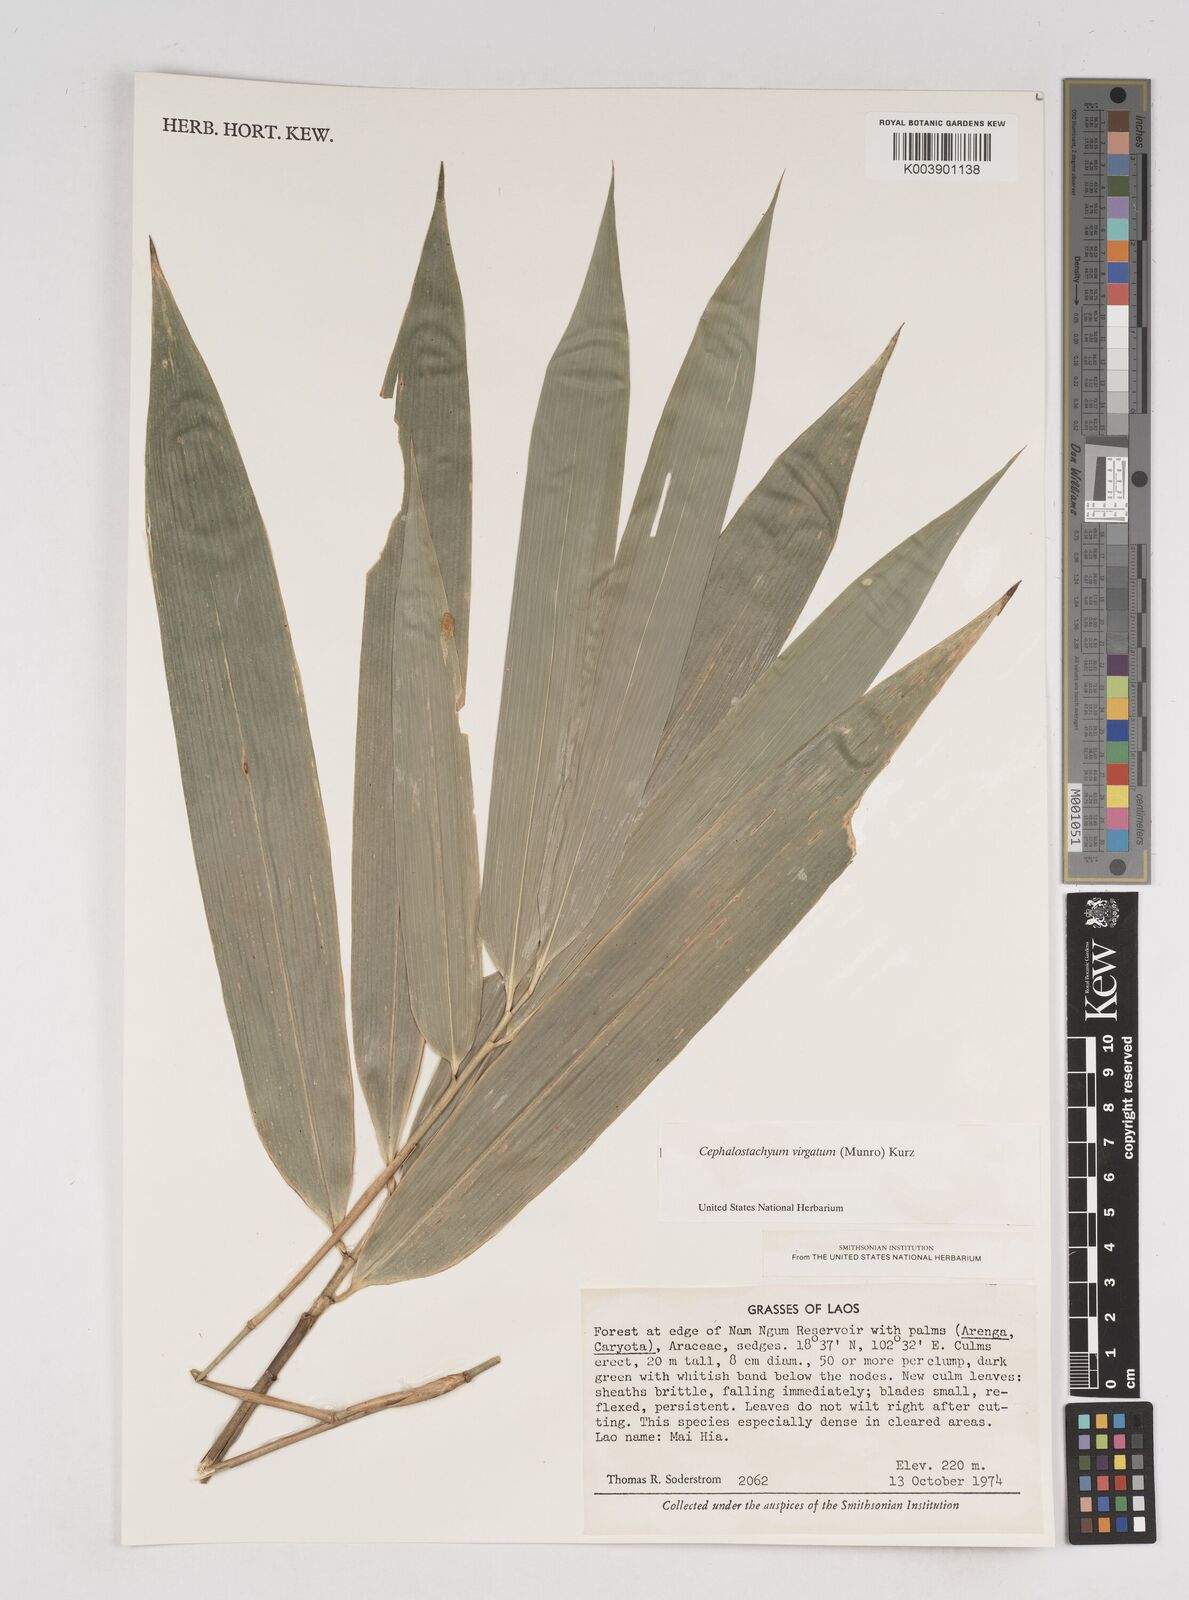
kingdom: Plantae
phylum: Tracheophyta
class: Liliopsida
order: Poales
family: Poaceae
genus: Schizostachyum
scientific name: Schizostachyum virgatum
